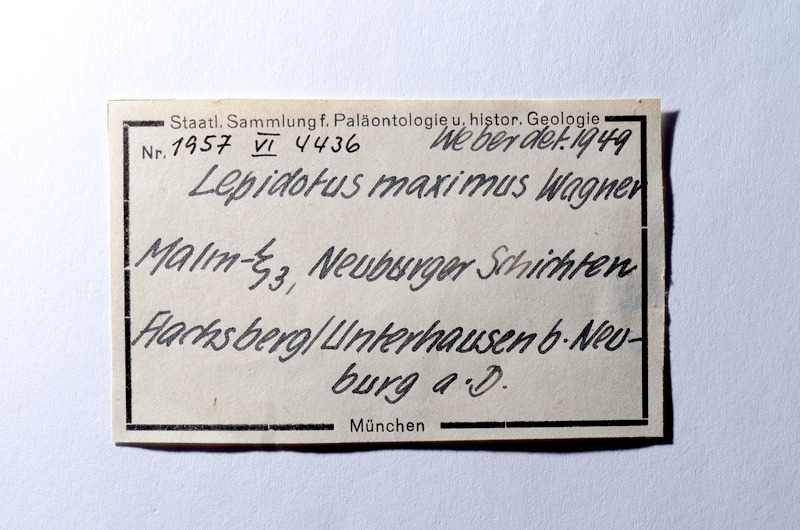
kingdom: Animalia
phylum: Chordata
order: Lepisosteiformes
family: Lepidotidae
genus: Scheenstia
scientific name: Scheenstia maximus
